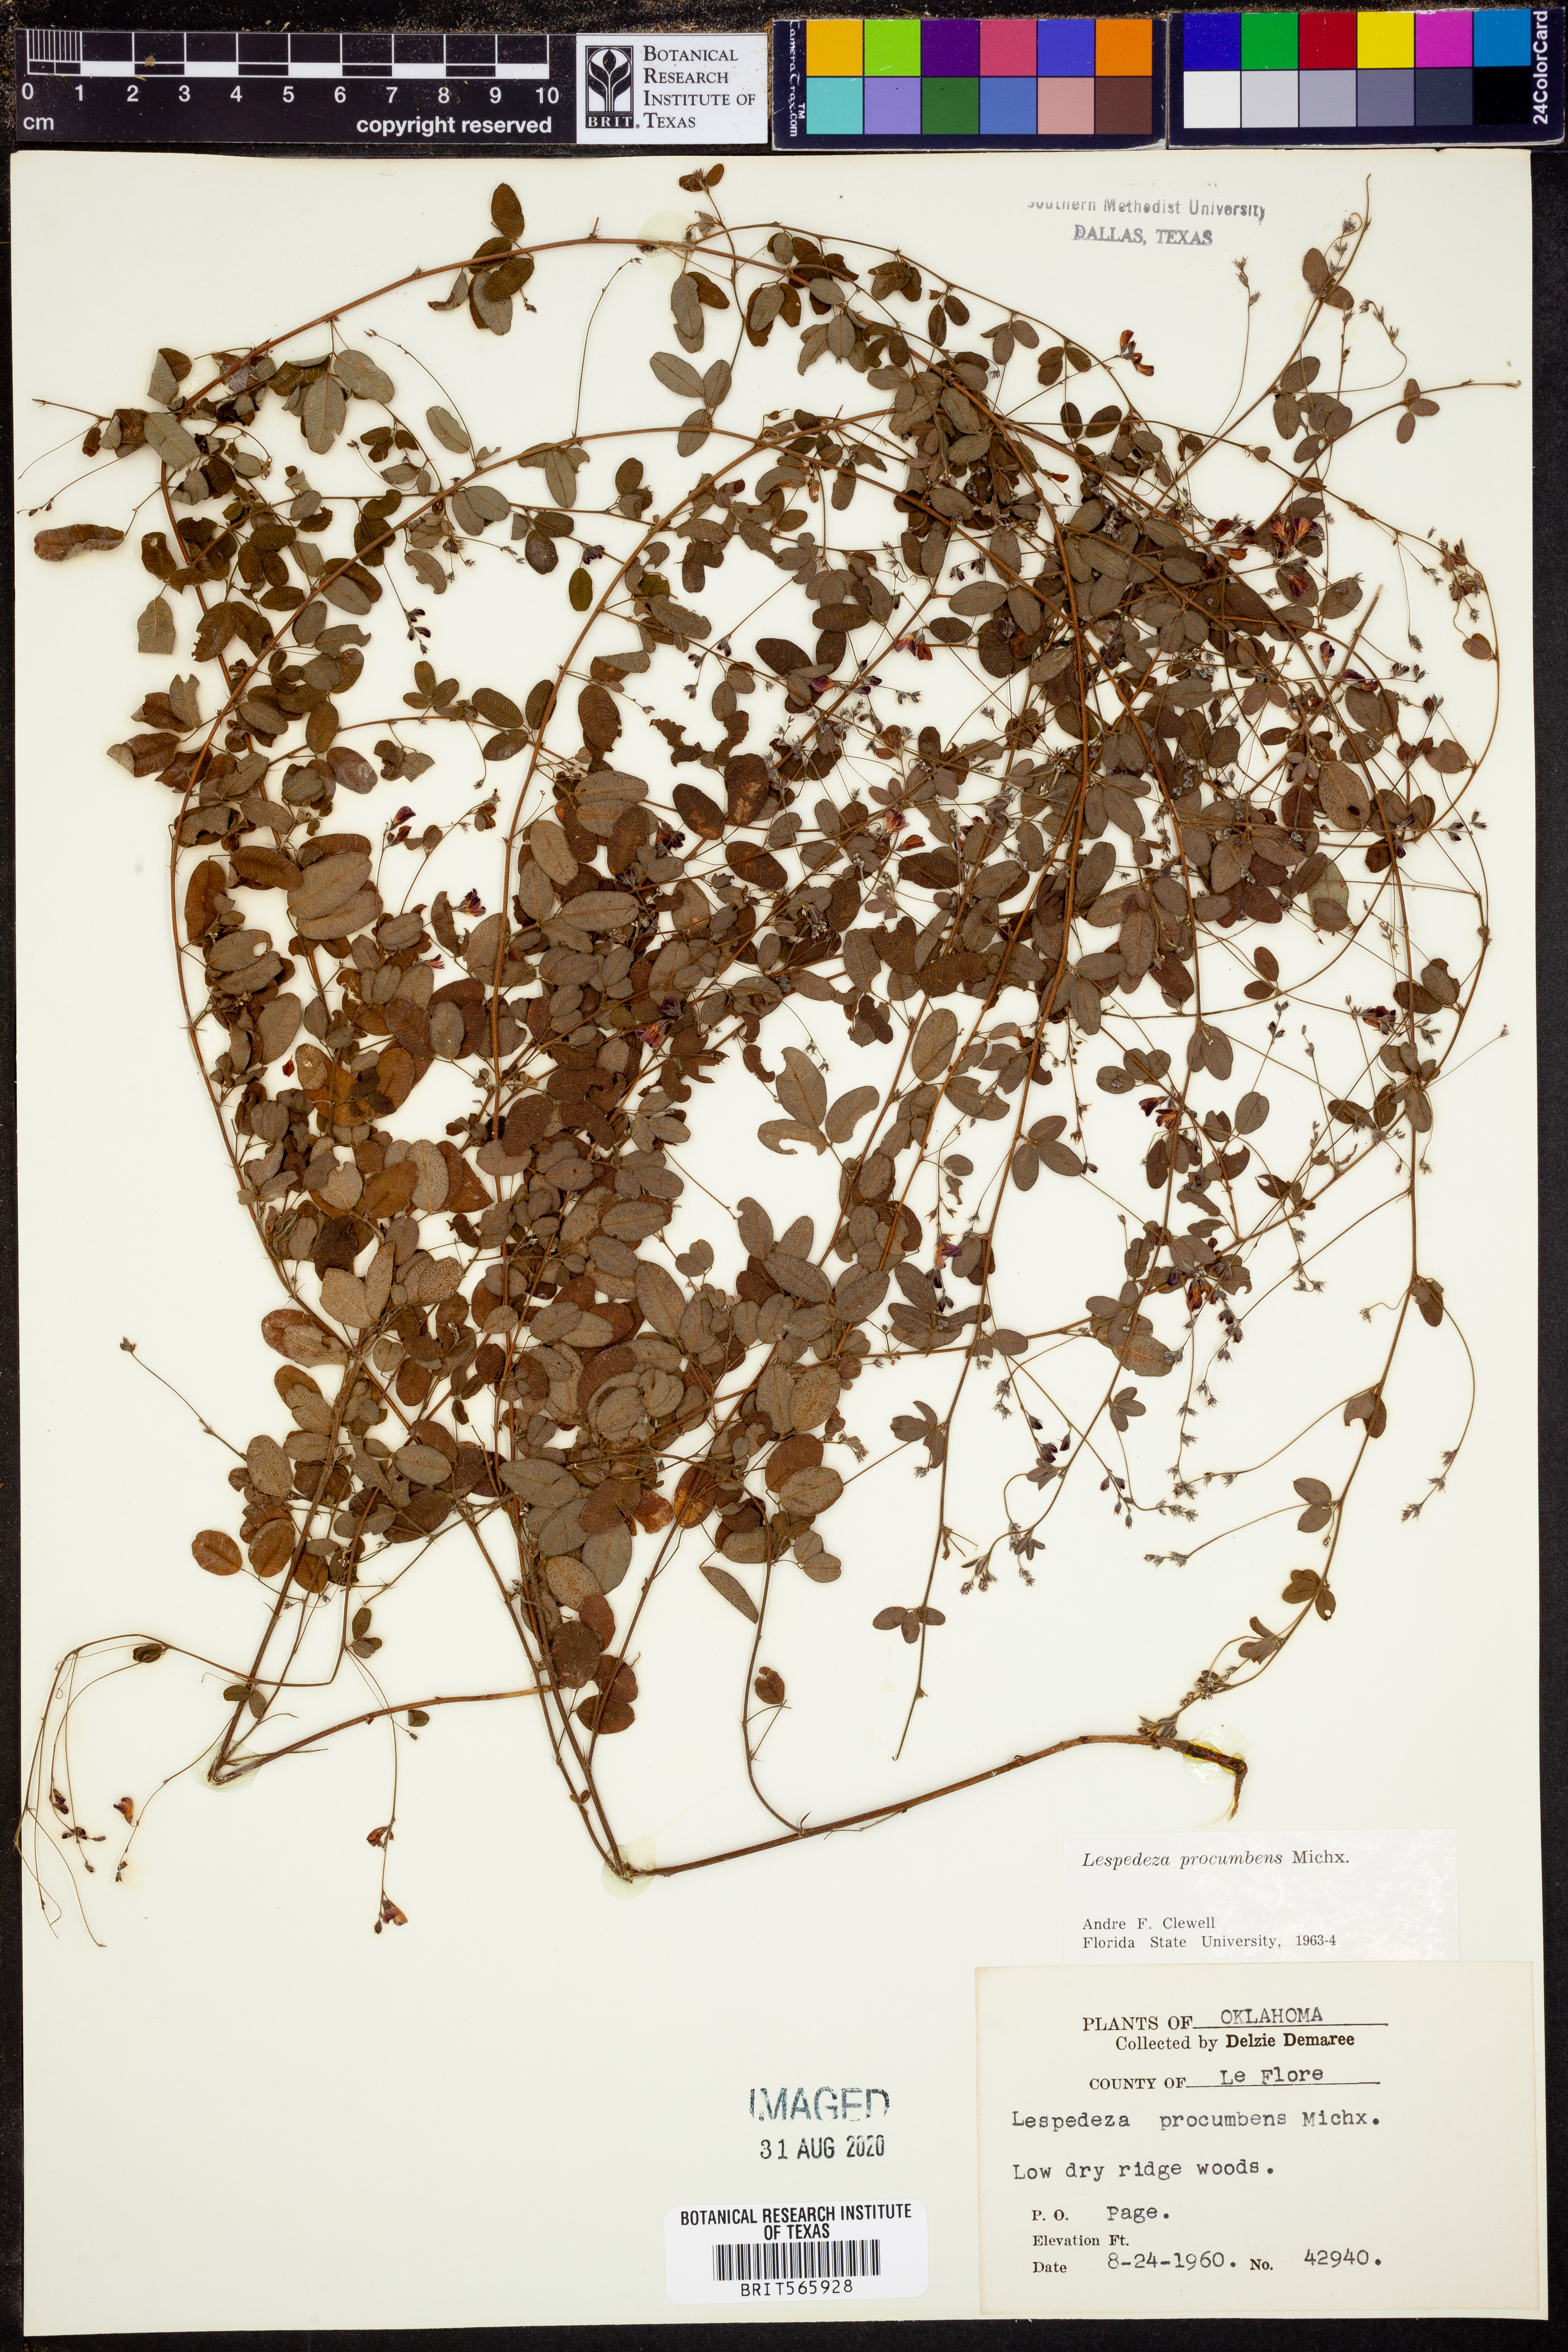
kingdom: Plantae
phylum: Tracheophyta
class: Magnoliopsida
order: Fabales
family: Fabaceae
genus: Lespedeza
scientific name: Lespedeza procumbens
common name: Downy trailing bush-clover
